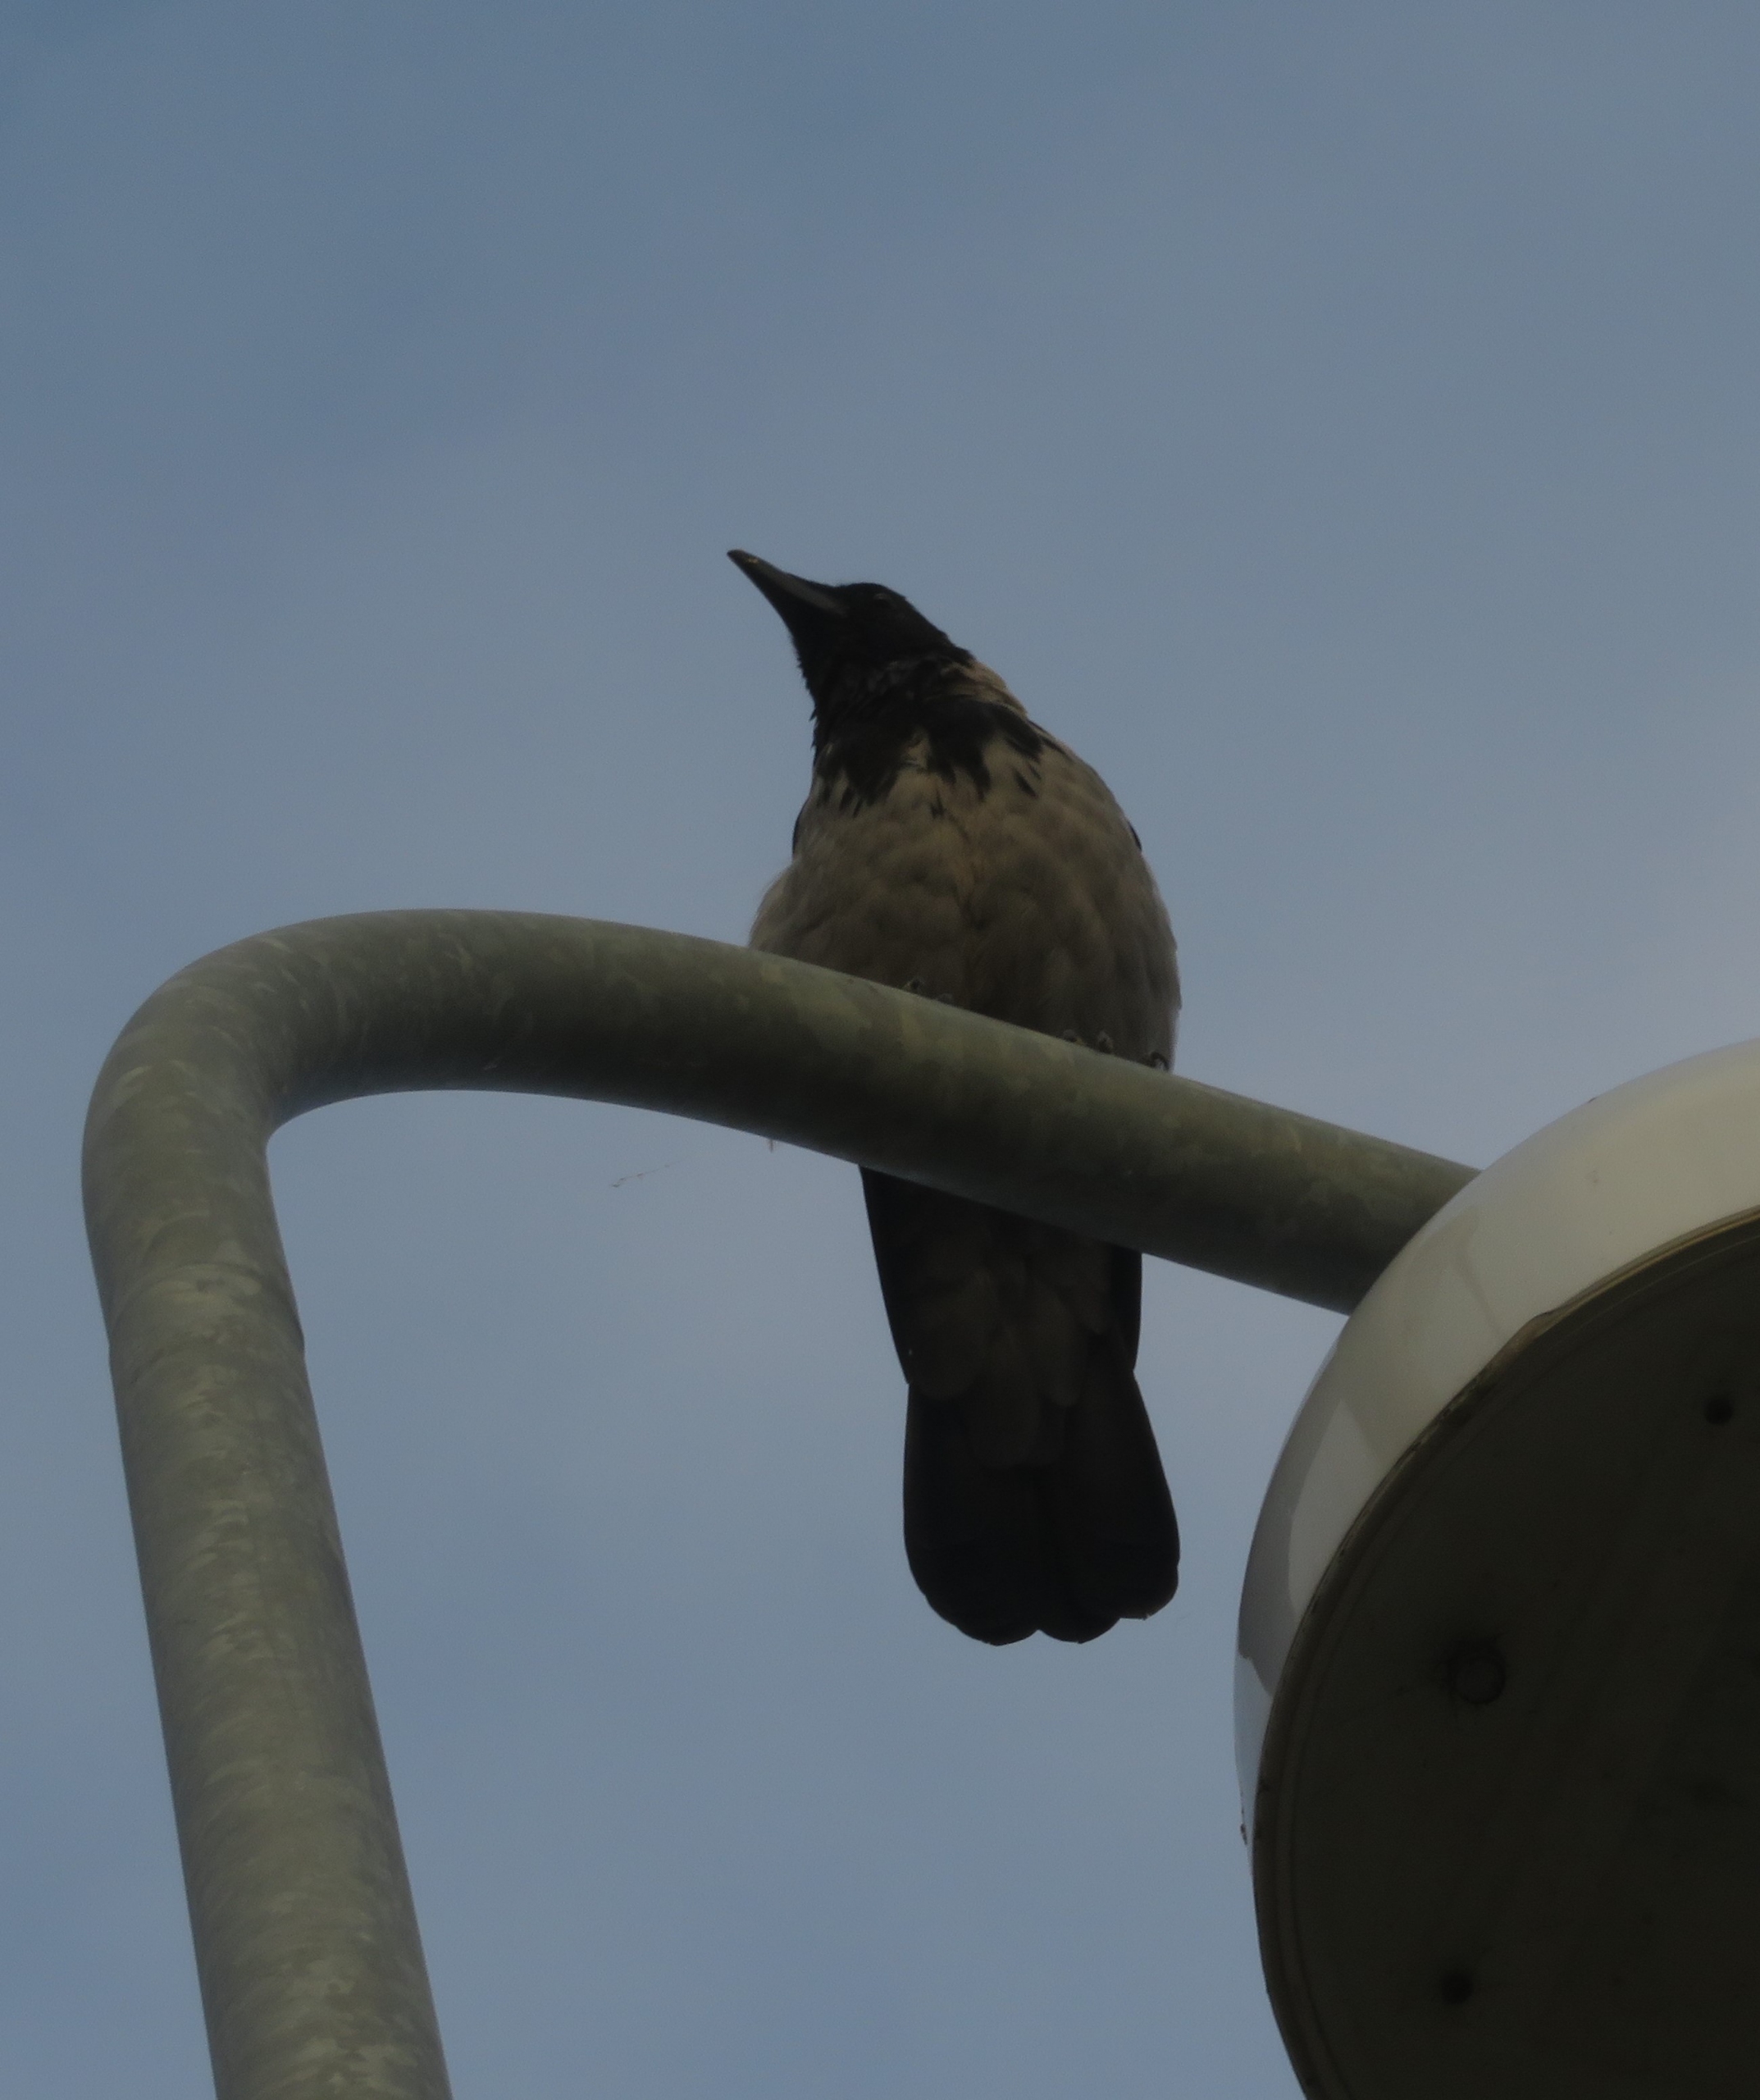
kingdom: Animalia
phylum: Chordata
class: Aves
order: Passeriformes
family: Corvidae
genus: Corvus
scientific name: Corvus cornix
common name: Gråkrage
